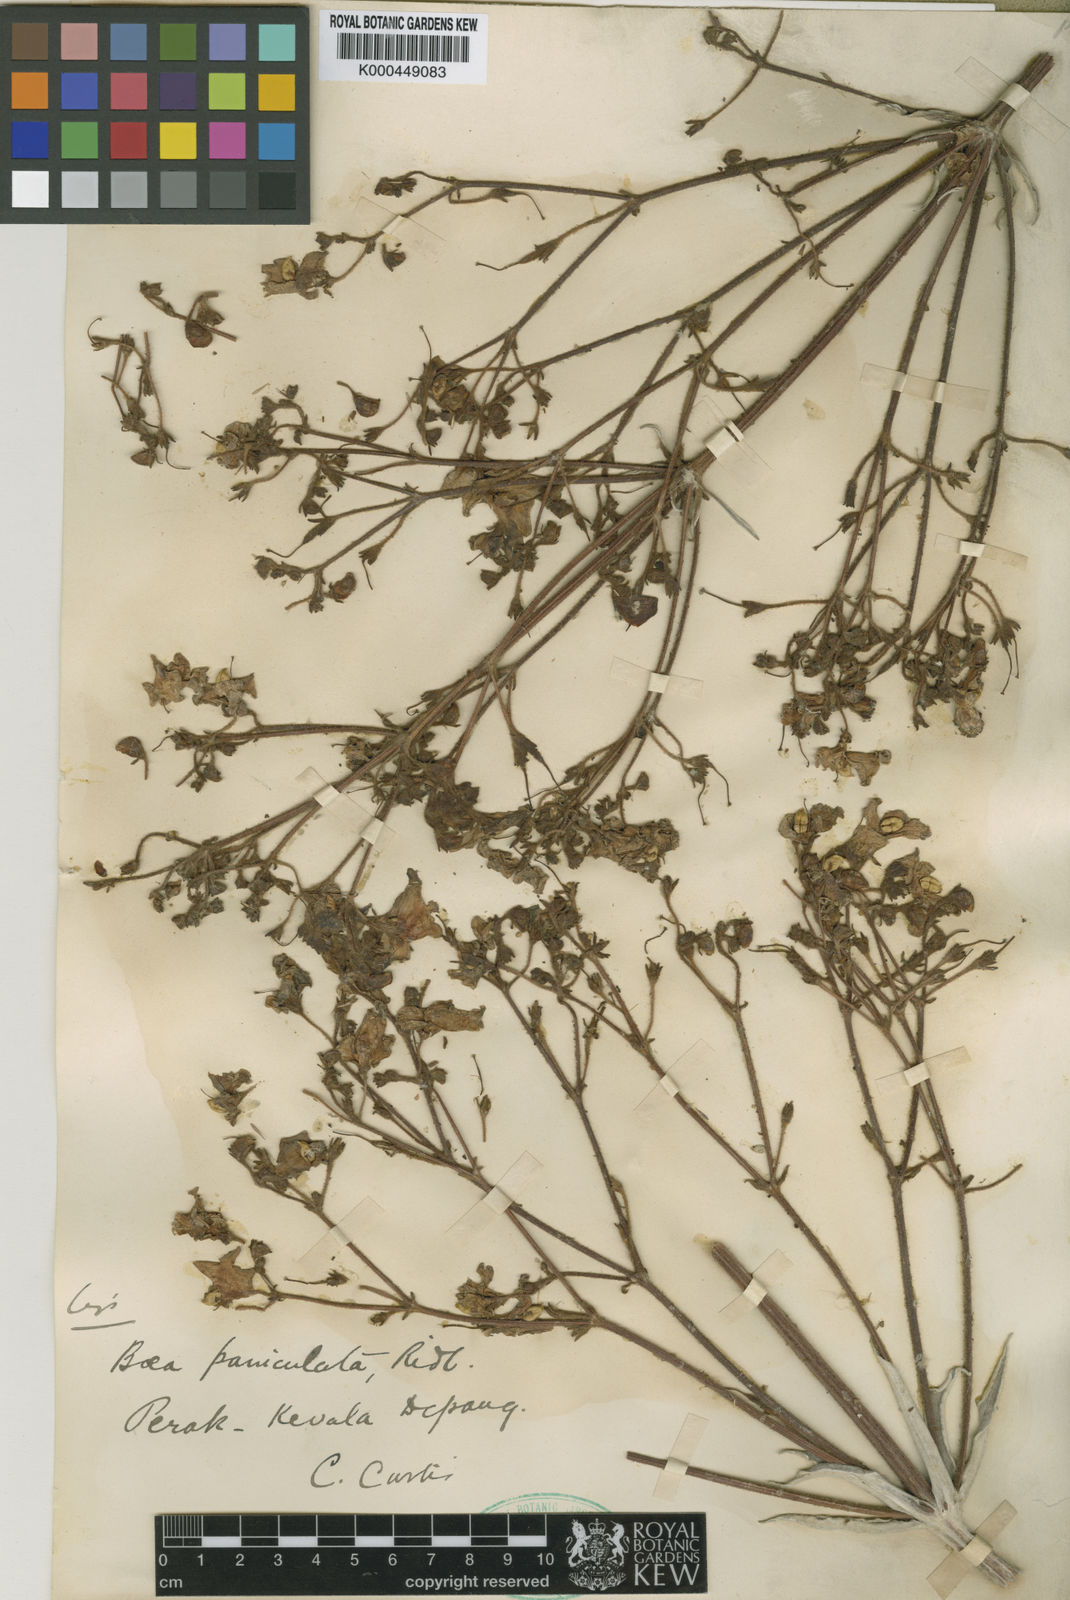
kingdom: Plantae
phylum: Tracheophyta
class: Magnoliopsida
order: Lamiales
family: Gesneriaceae
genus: Paraboea
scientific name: Paraboea paniculata
